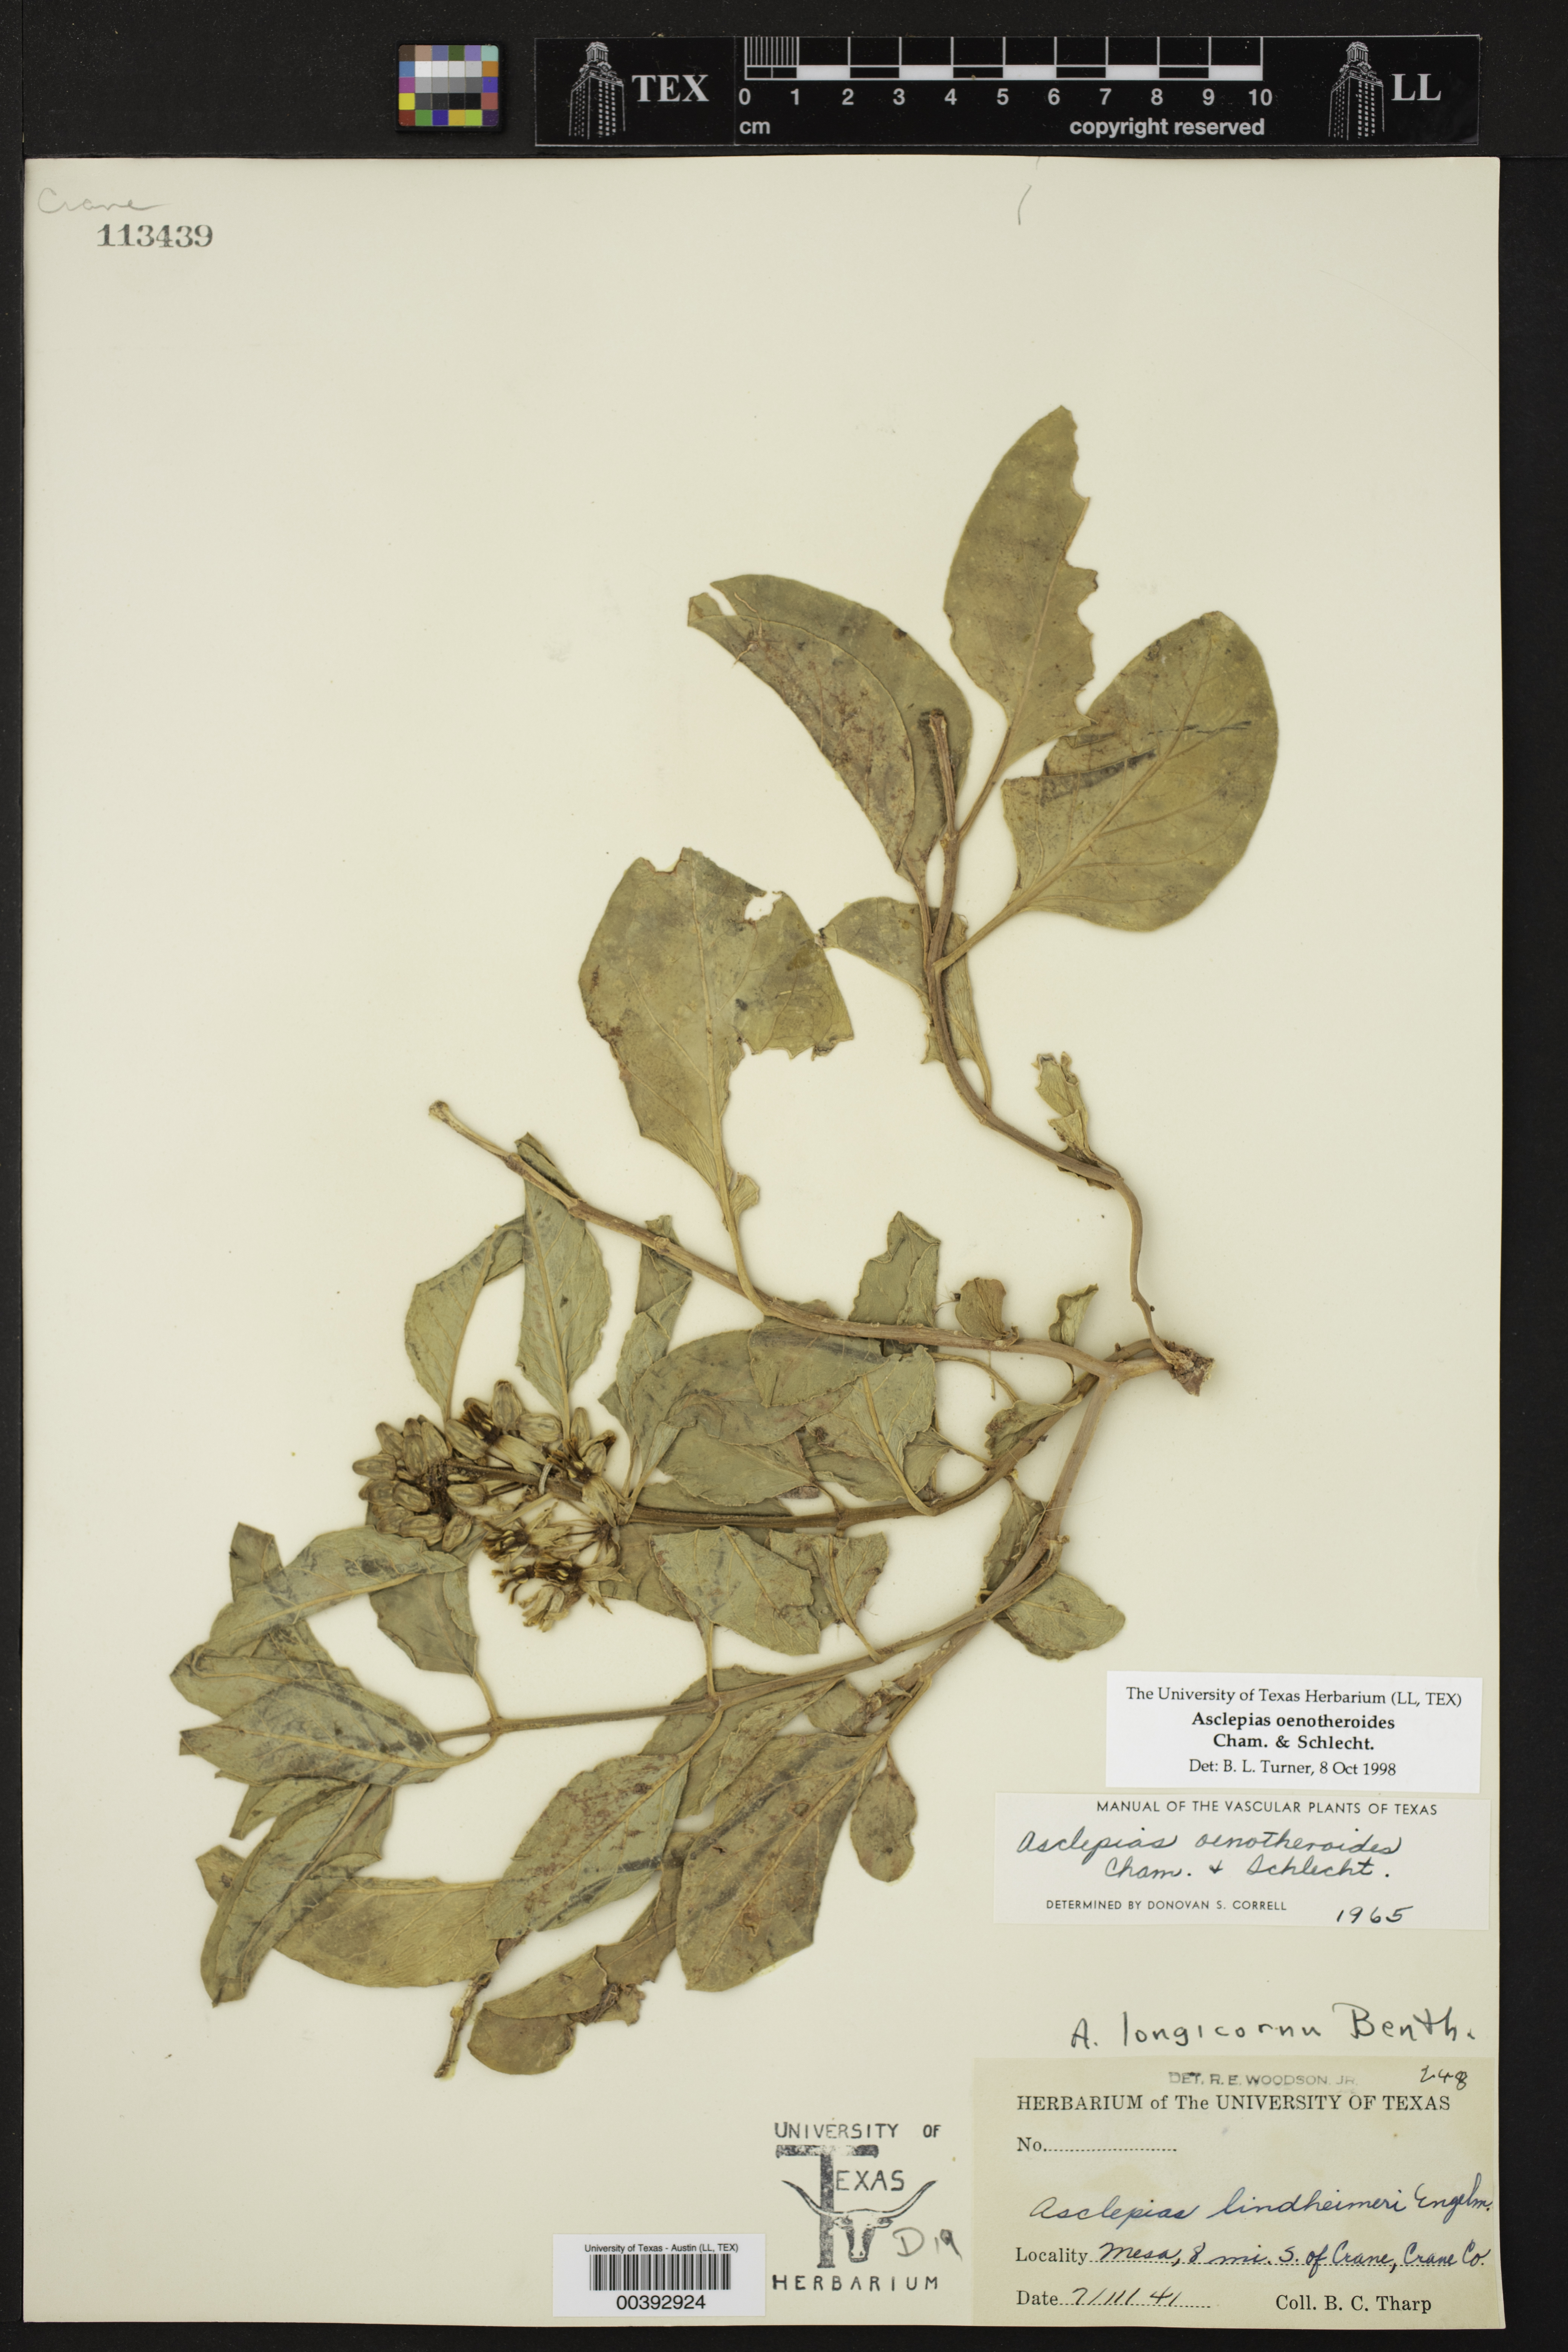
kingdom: Plantae
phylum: Tracheophyta
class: Magnoliopsida
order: Gentianales
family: Apocynaceae
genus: Asclepias
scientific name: Asclepias oenotheroides
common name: Zizotes milkweed
